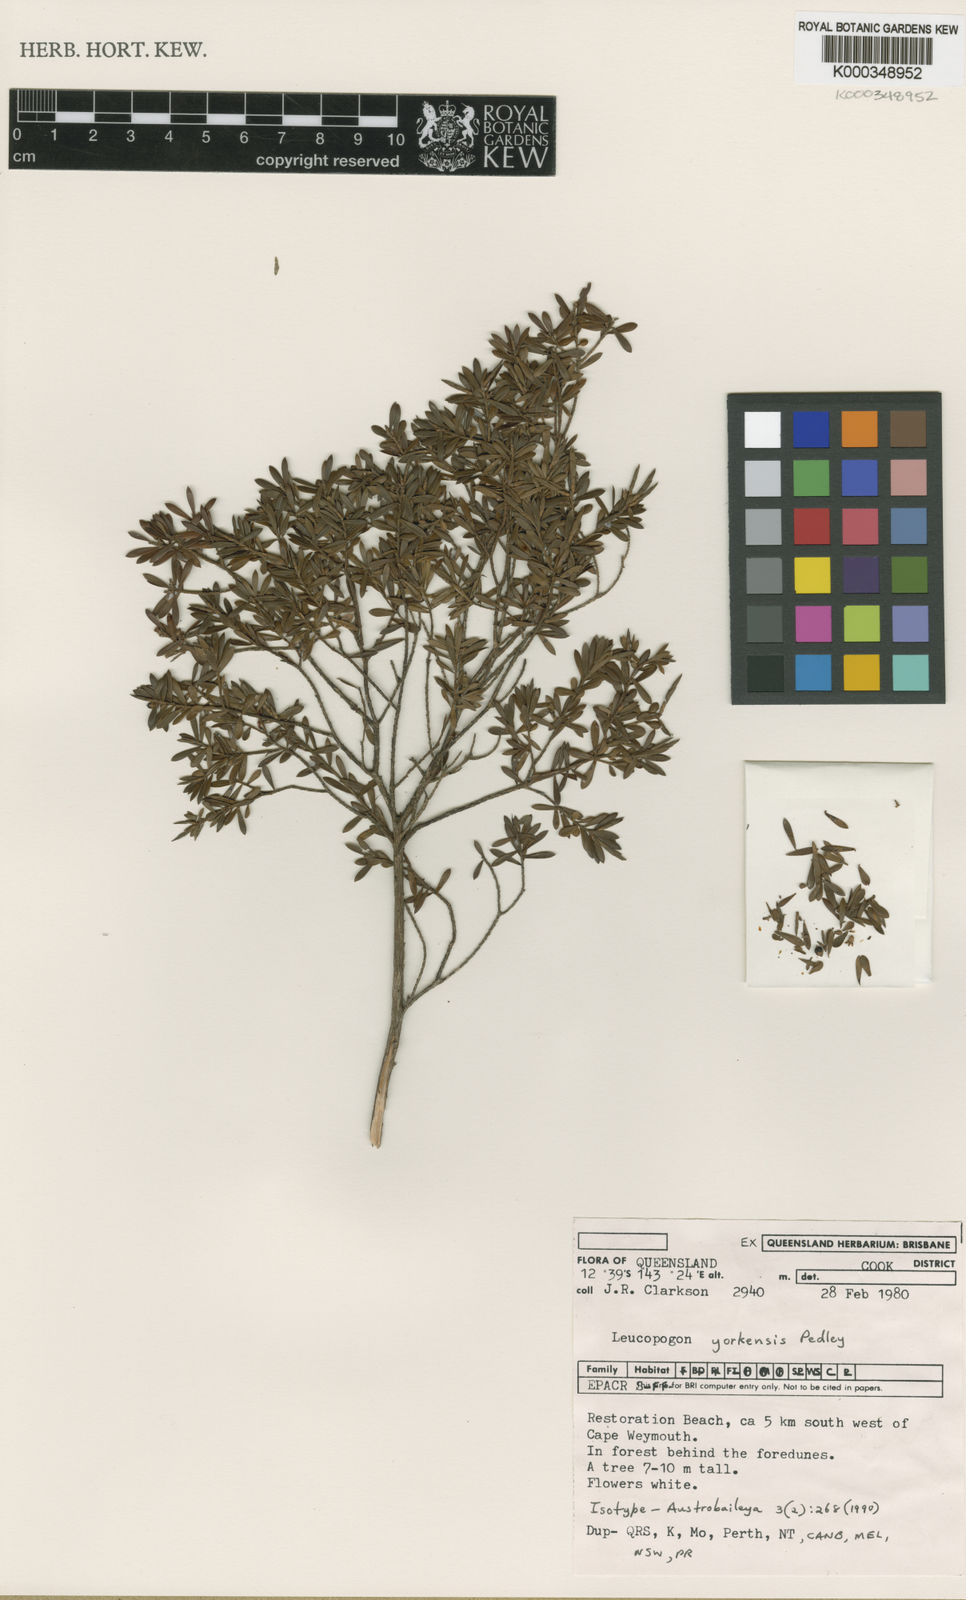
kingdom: Plantae
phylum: Tracheophyta
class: Magnoliopsida
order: Ericales
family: Ericaceae
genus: Styphelia
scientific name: Styphelia yorkensis
